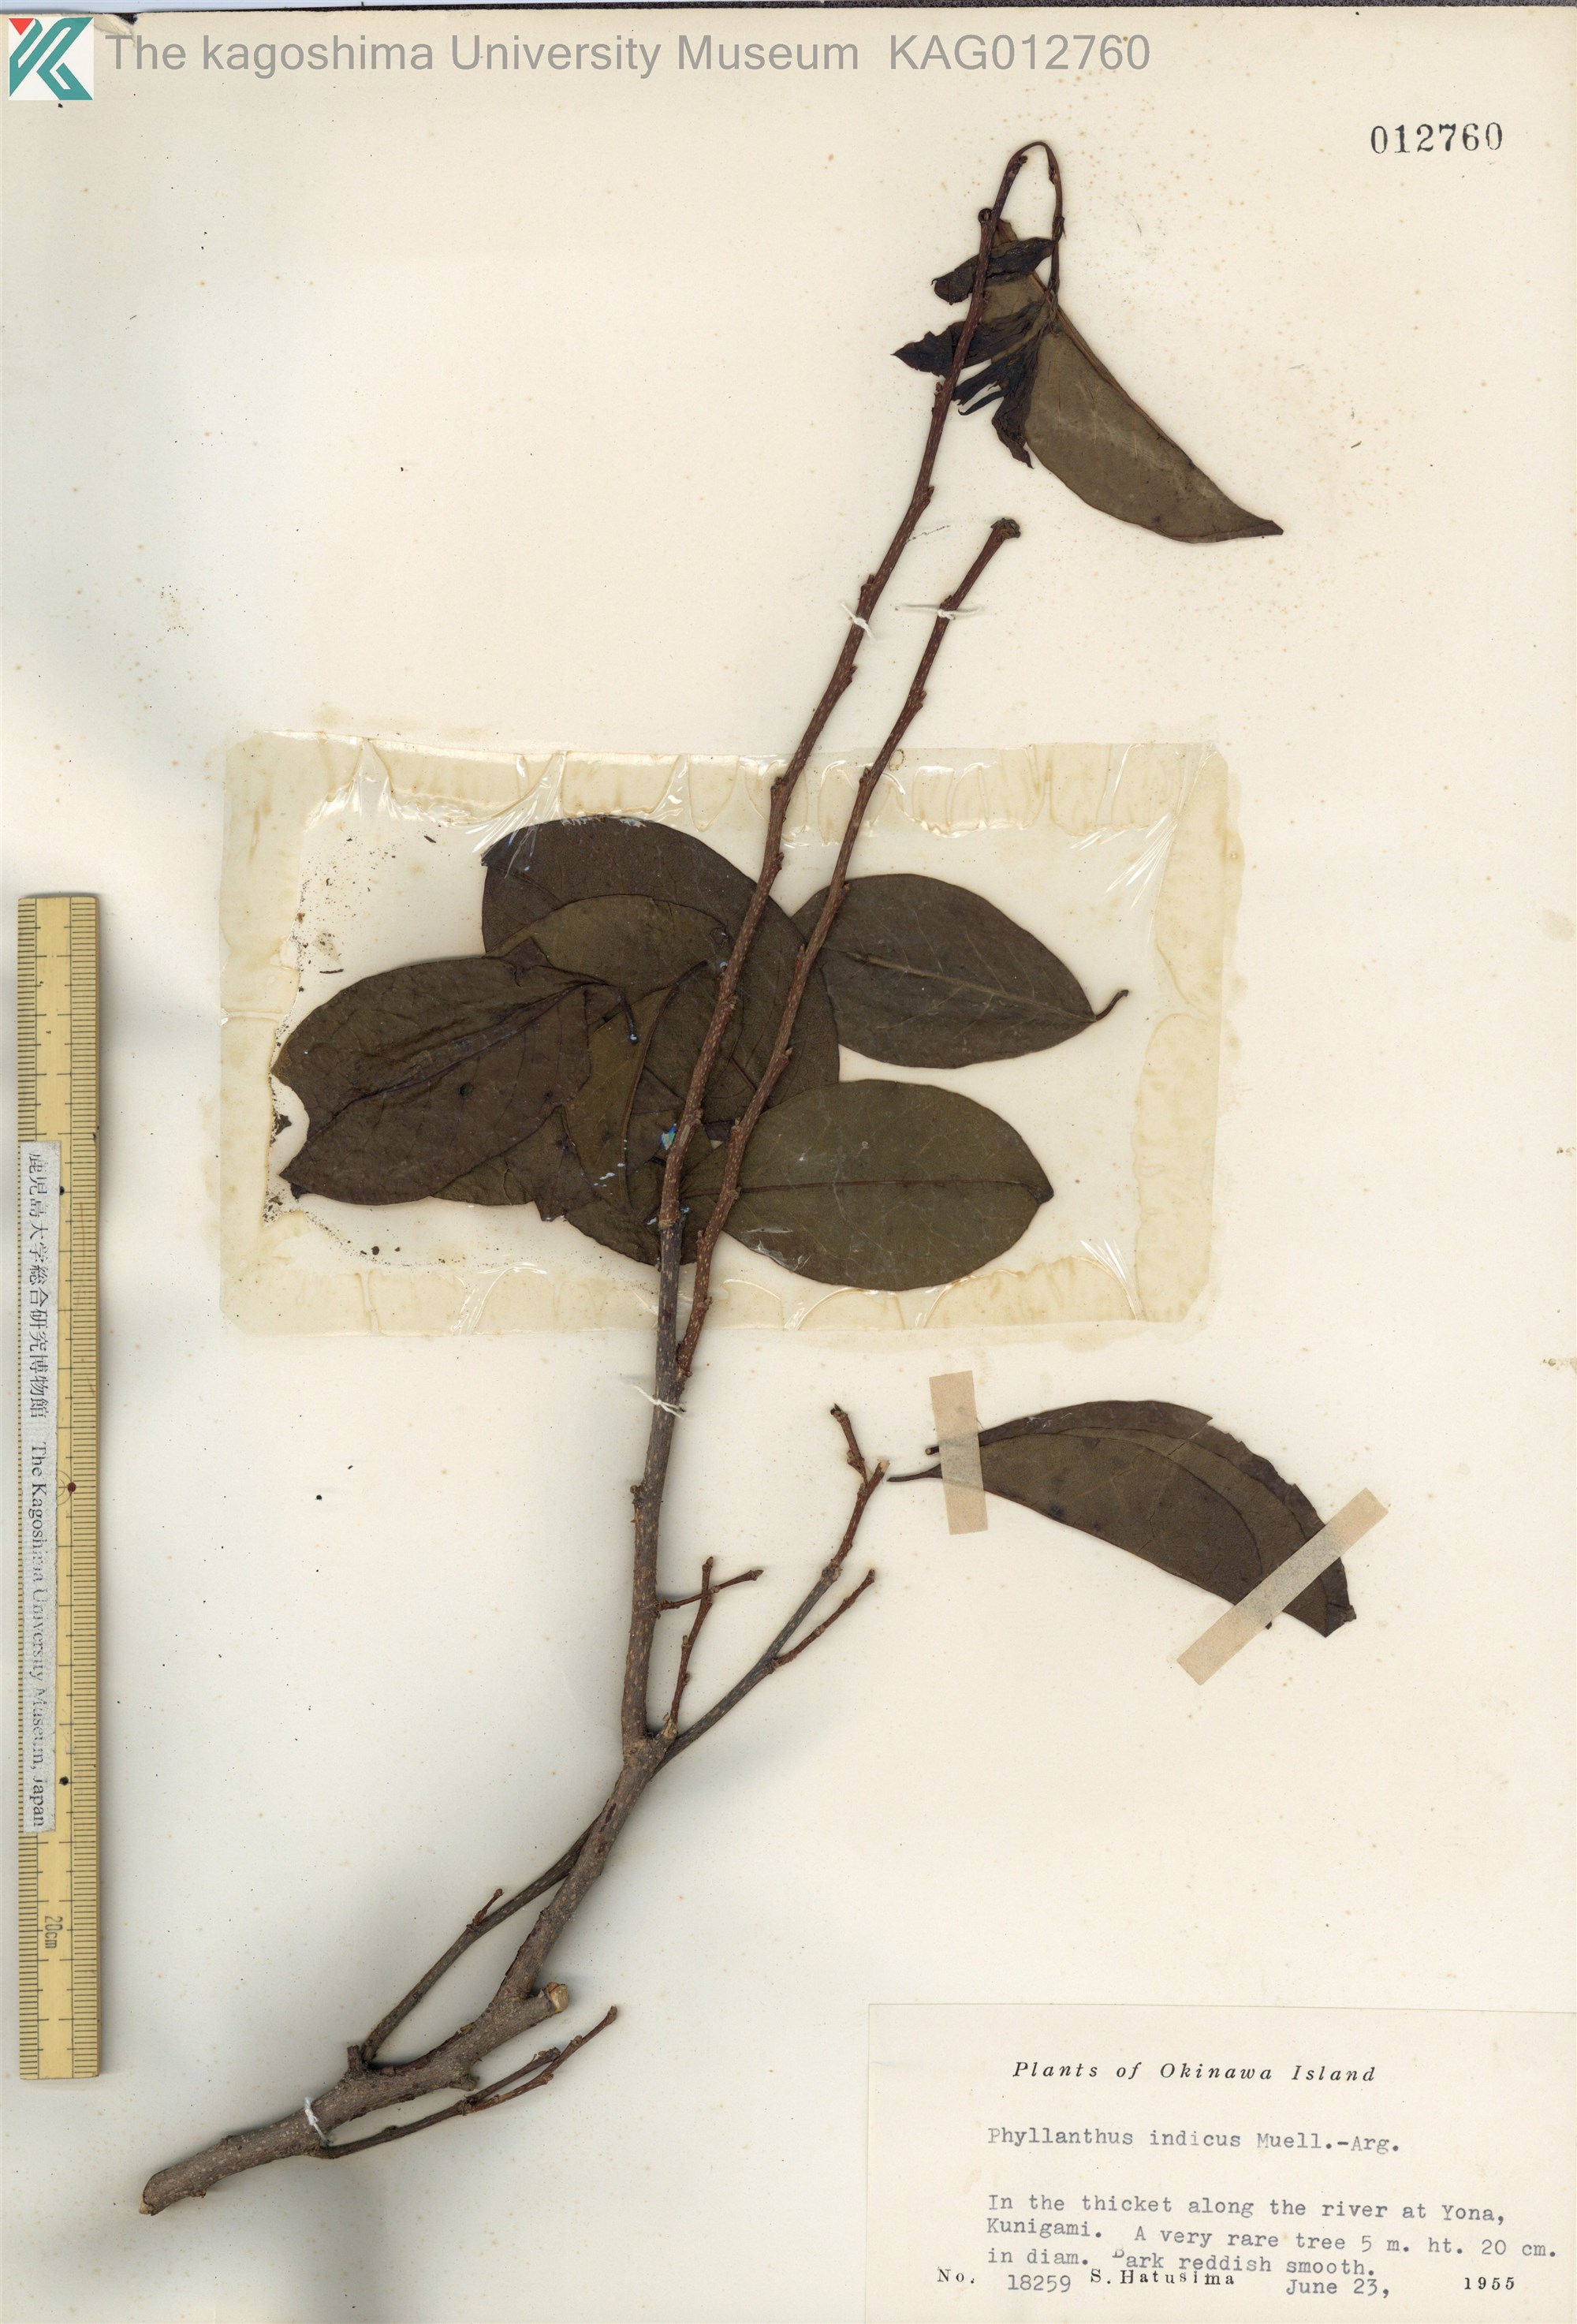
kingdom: Plantae
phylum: Tracheophyta
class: Magnoliopsida
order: Malpighiales
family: Phyllanthaceae
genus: Margaritaria
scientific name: Margaritaria indica
